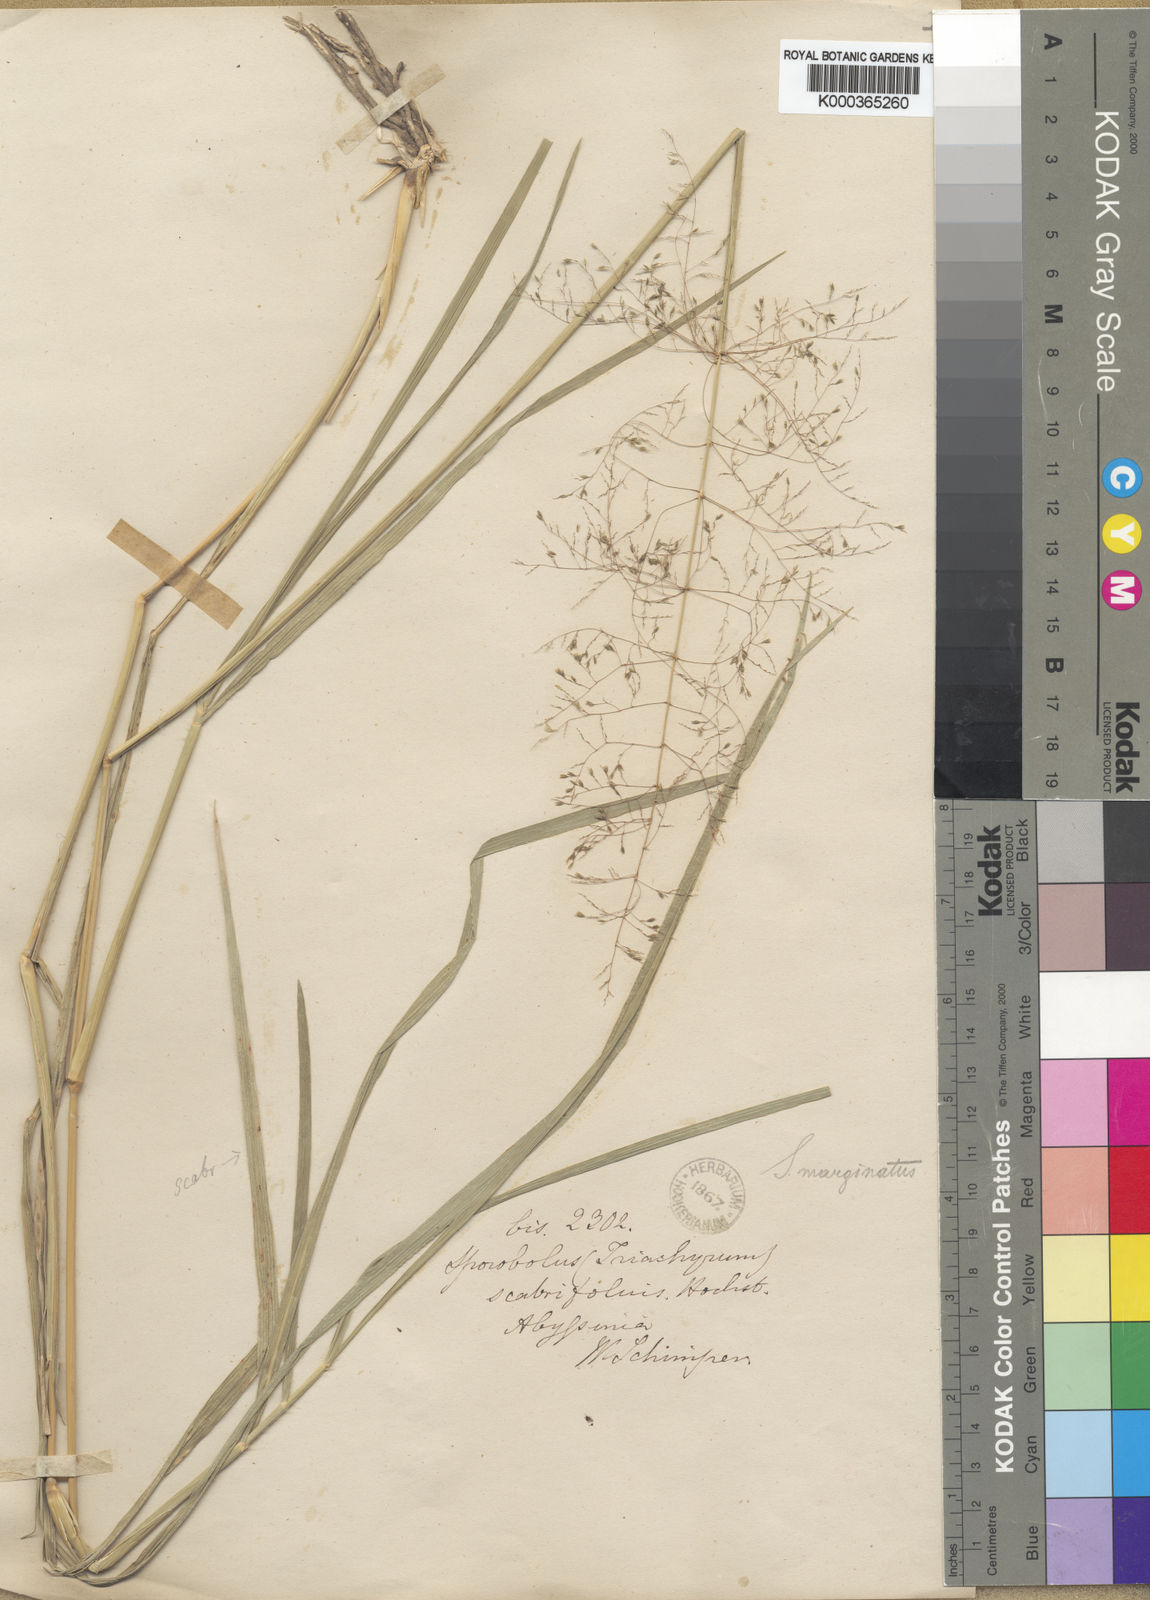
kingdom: Plantae
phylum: Tracheophyta
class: Liliopsida
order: Poales
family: Poaceae
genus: Sporobolus
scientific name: Sporobolus ioclados
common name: Pan dropseed
